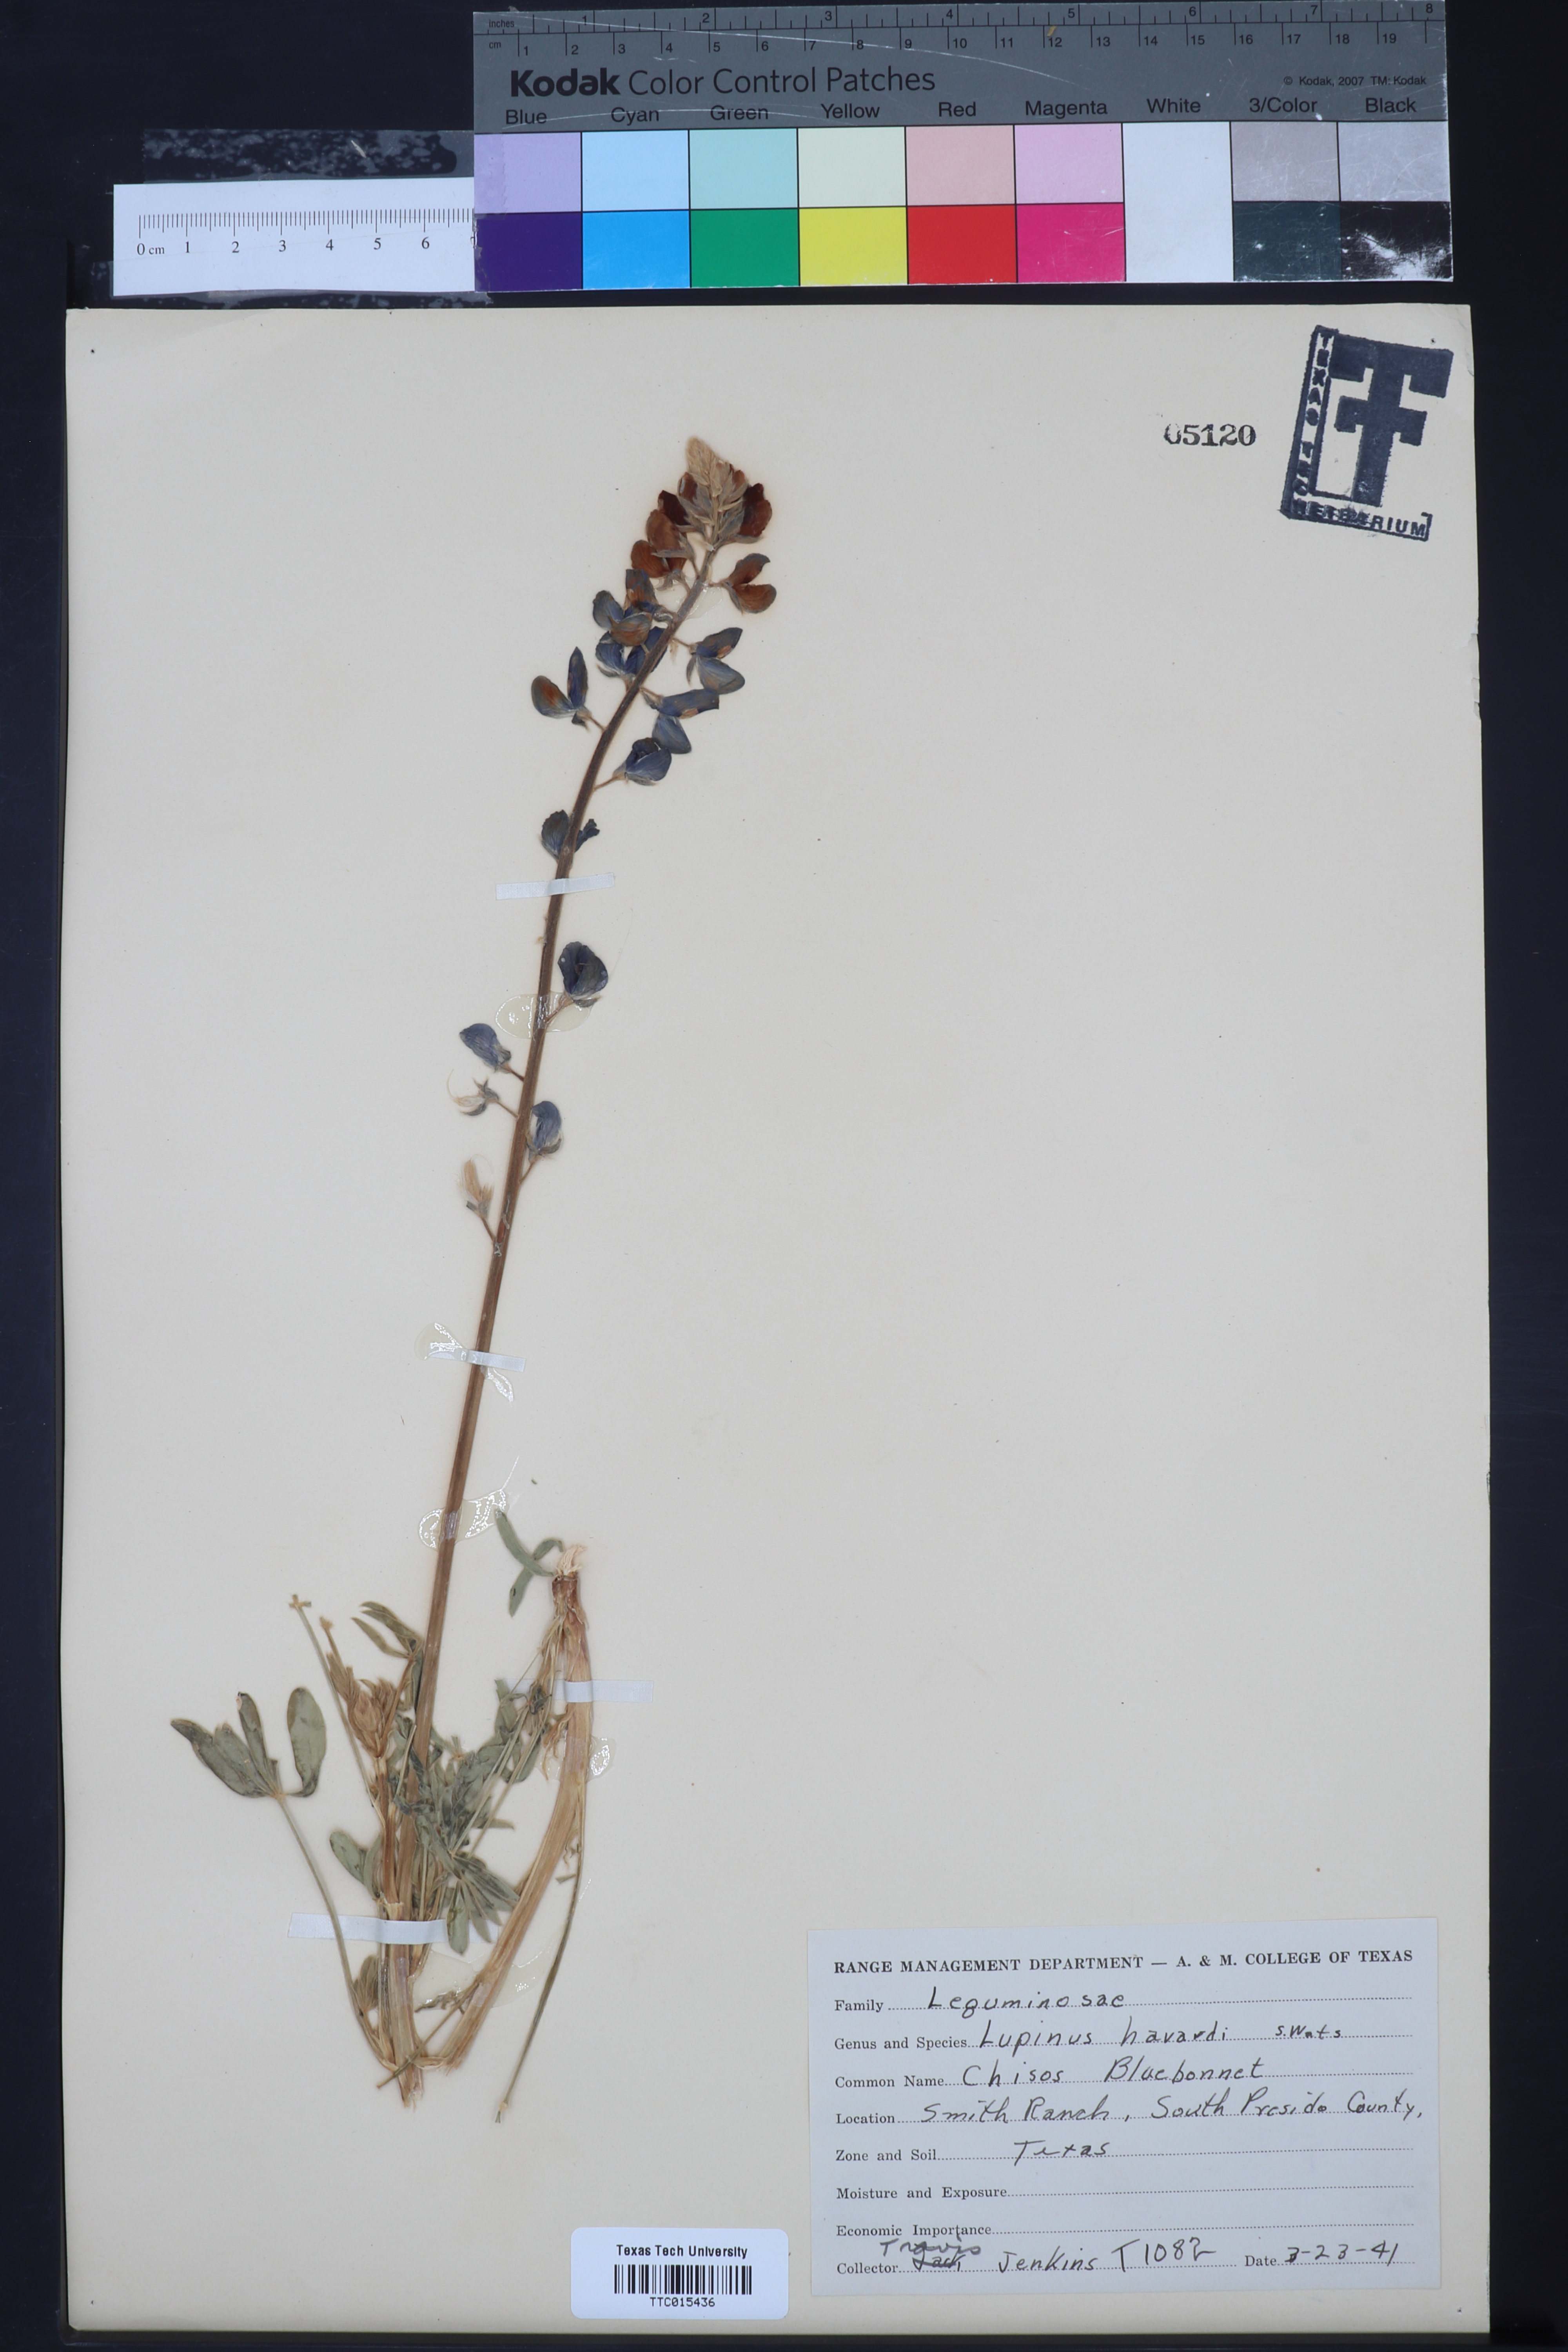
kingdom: Plantae
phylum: Tracheophyta
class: Magnoliopsida
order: Fabales
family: Fabaceae
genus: Lupinus
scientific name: Lupinus havardii
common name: Chisos bluebonnet
